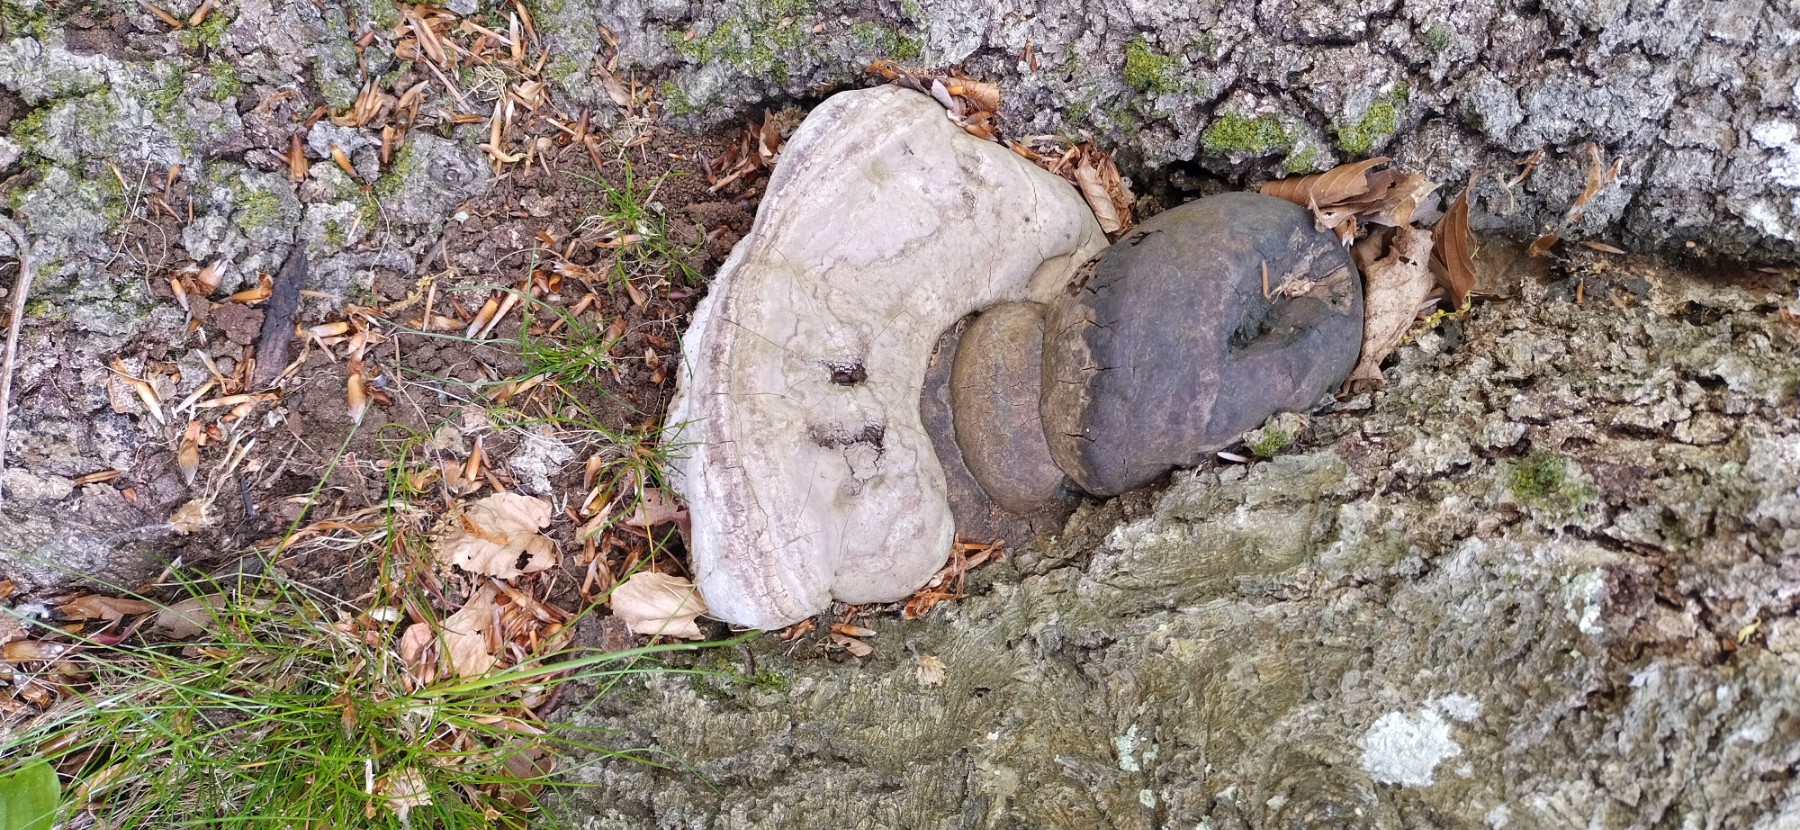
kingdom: Fungi
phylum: Basidiomycota
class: Agaricomycetes
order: Polyporales
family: Polyporaceae
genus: Fomes
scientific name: Fomes fomentarius
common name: tøndersvamp
